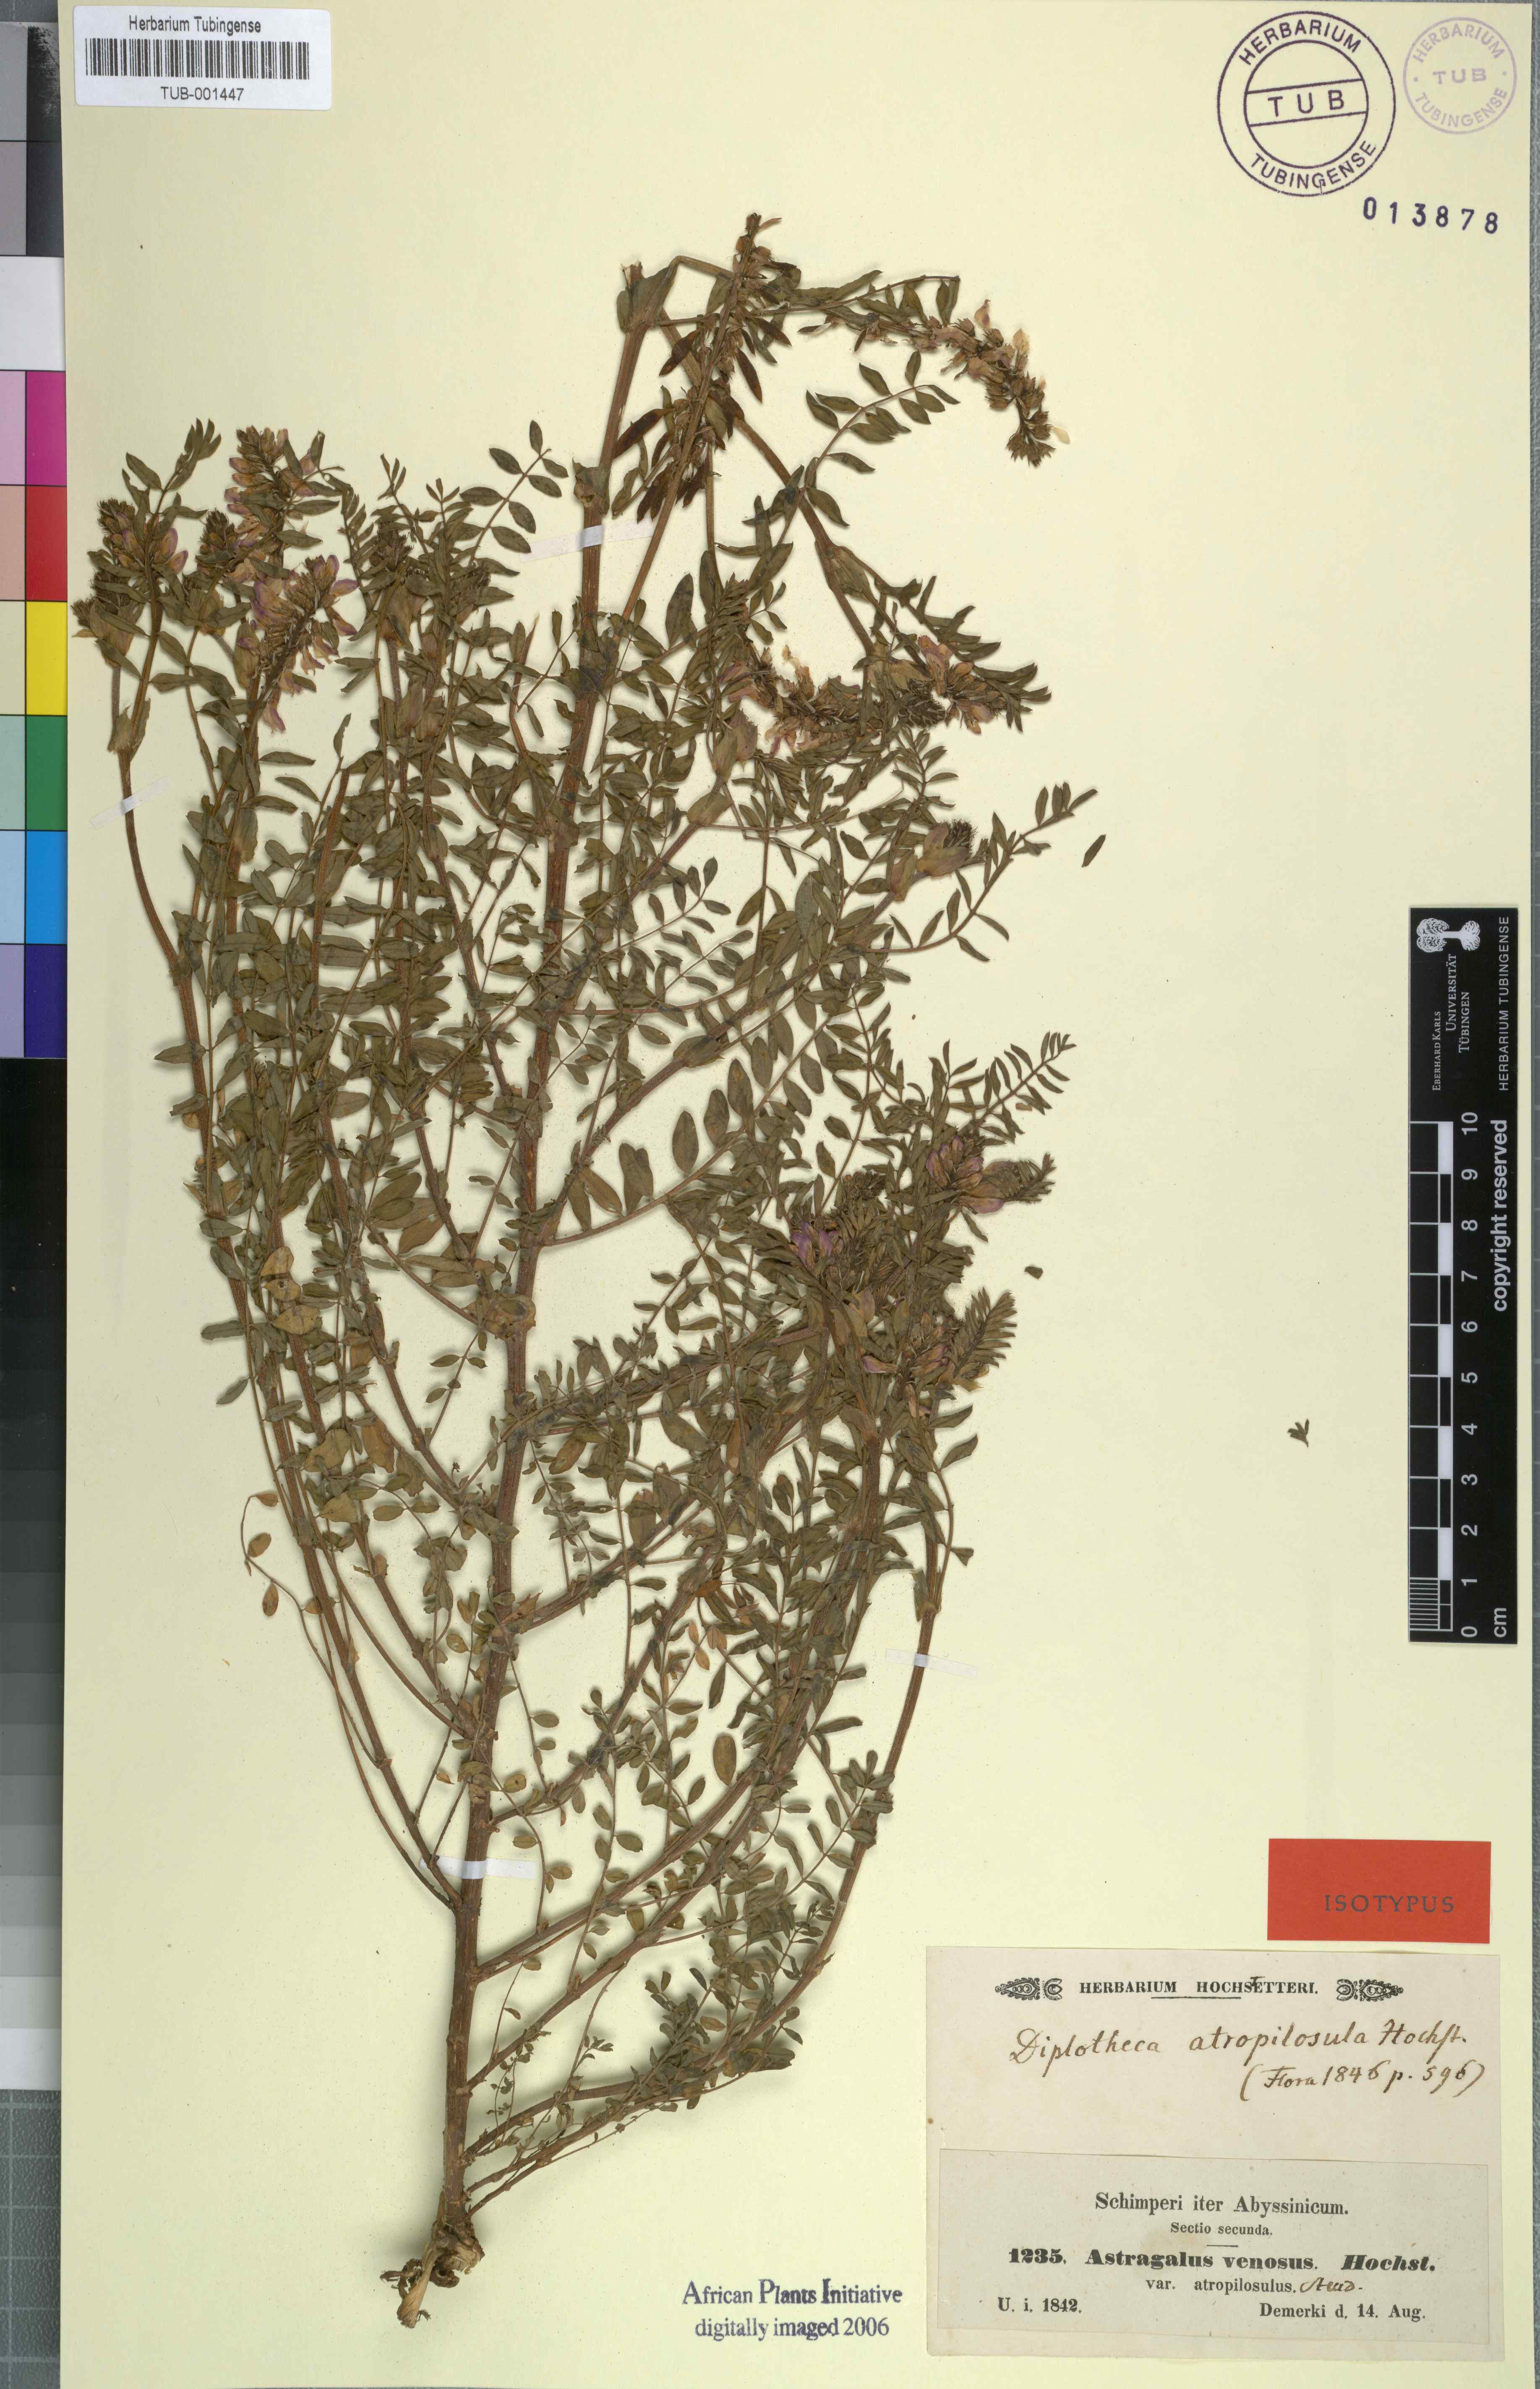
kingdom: Plantae
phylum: Tracheophyta
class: Magnoliopsida
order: Fabales
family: Fabaceae
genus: Astragalus
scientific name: Astragalus atropilosulus
